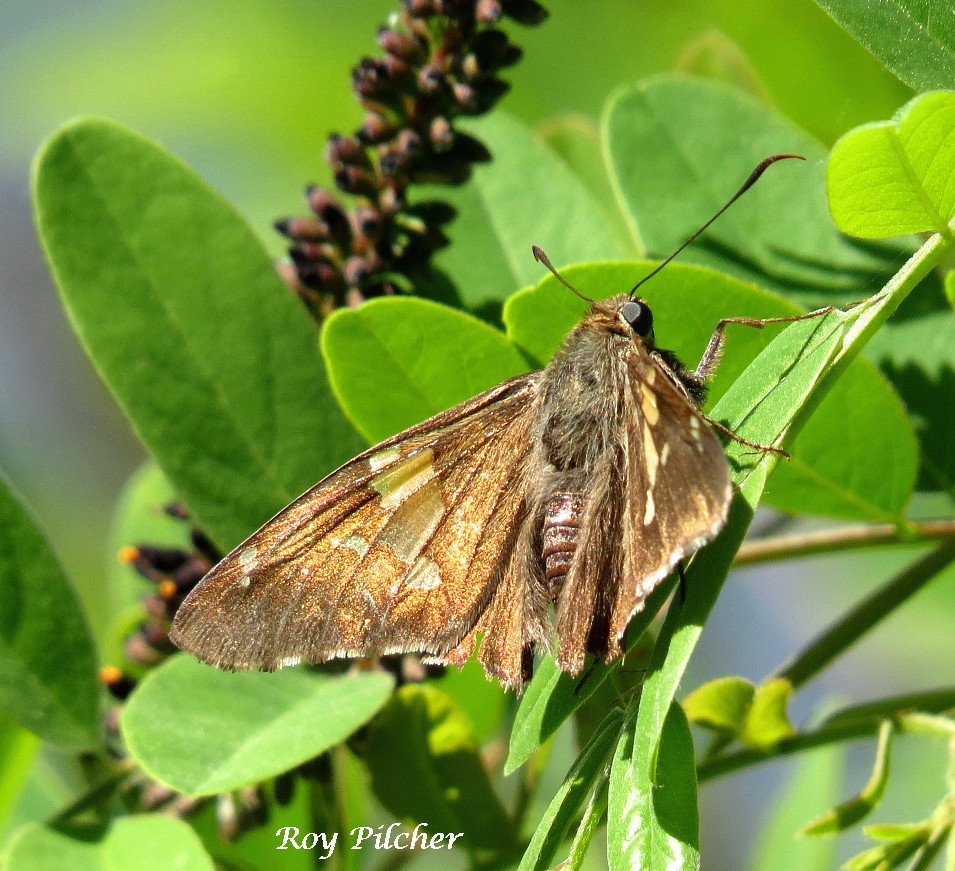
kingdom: Animalia
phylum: Arthropoda
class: Insecta
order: Lepidoptera
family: Hesperiidae
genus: Epargyreus
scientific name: Epargyreus clarus
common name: Silver-spotted Skipper
